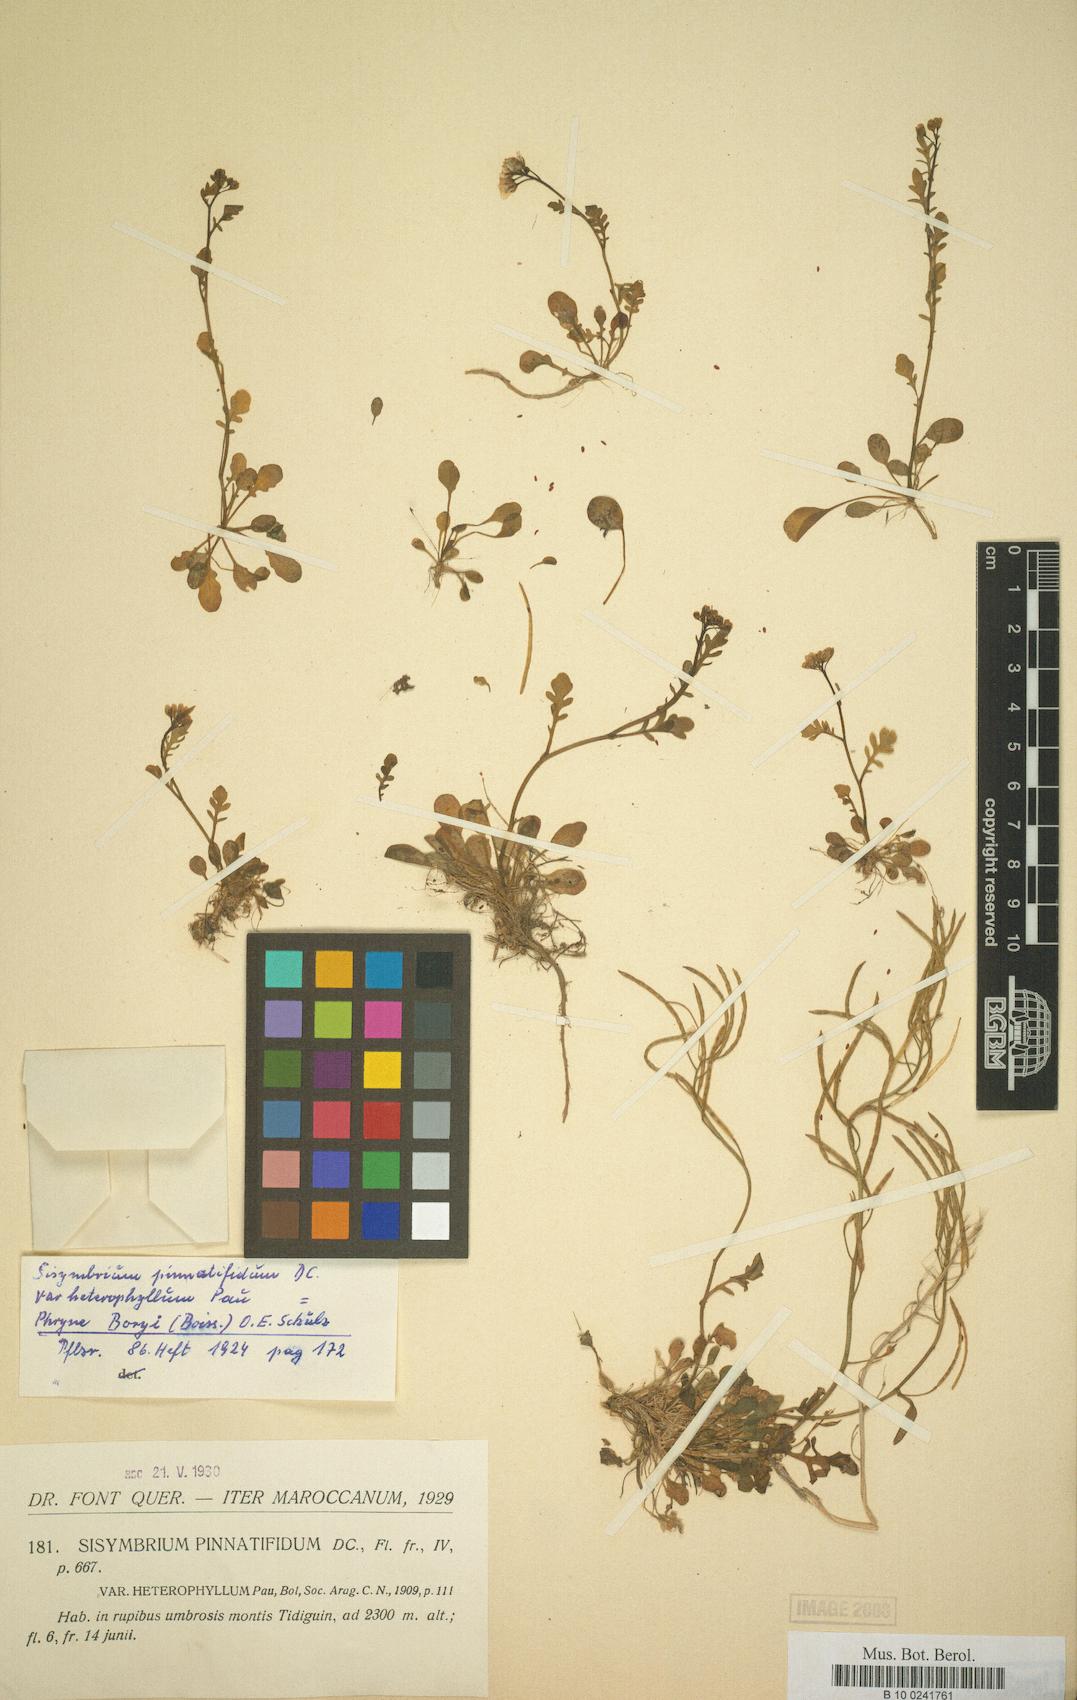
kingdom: Plantae
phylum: Tracheophyta
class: Magnoliopsida
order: Brassicales
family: Brassicaceae
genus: Murbeckiella
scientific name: Murbeckiella boryi
